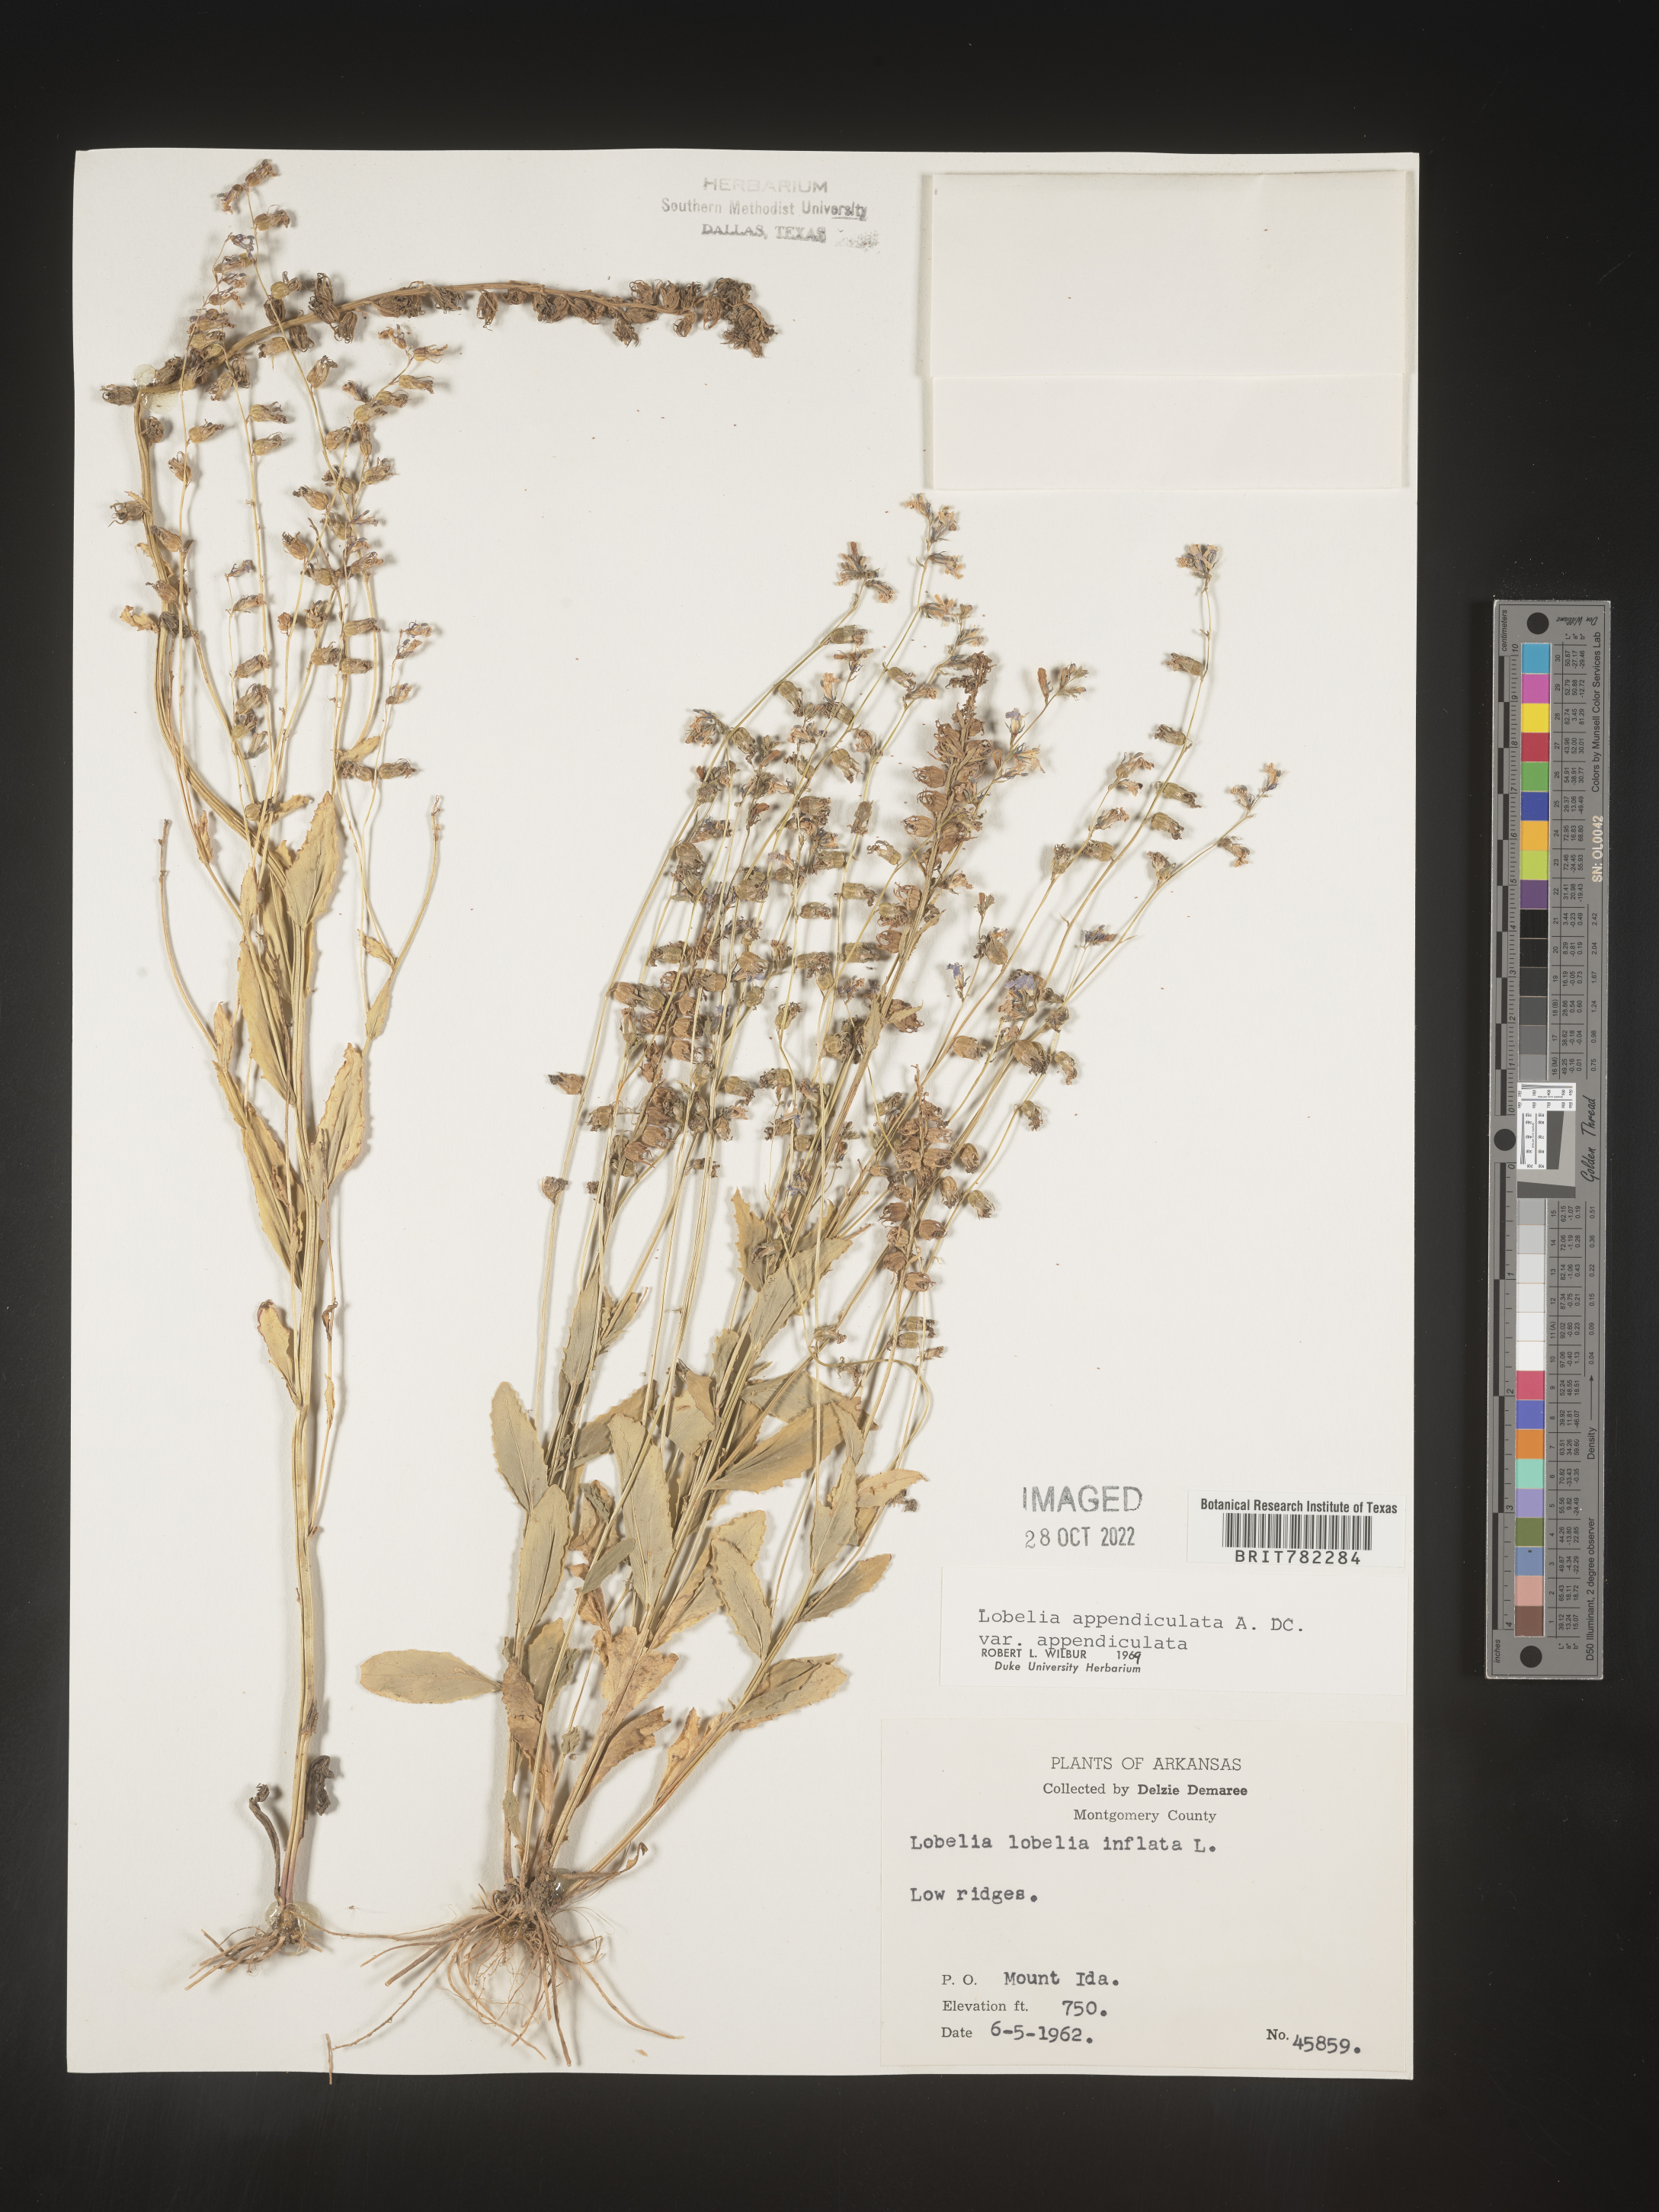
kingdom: Plantae
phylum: Tracheophyta
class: Magnoliopsida
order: Asterales
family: Campanulaceae
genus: Lobelia
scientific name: Lobelia appendiculata
